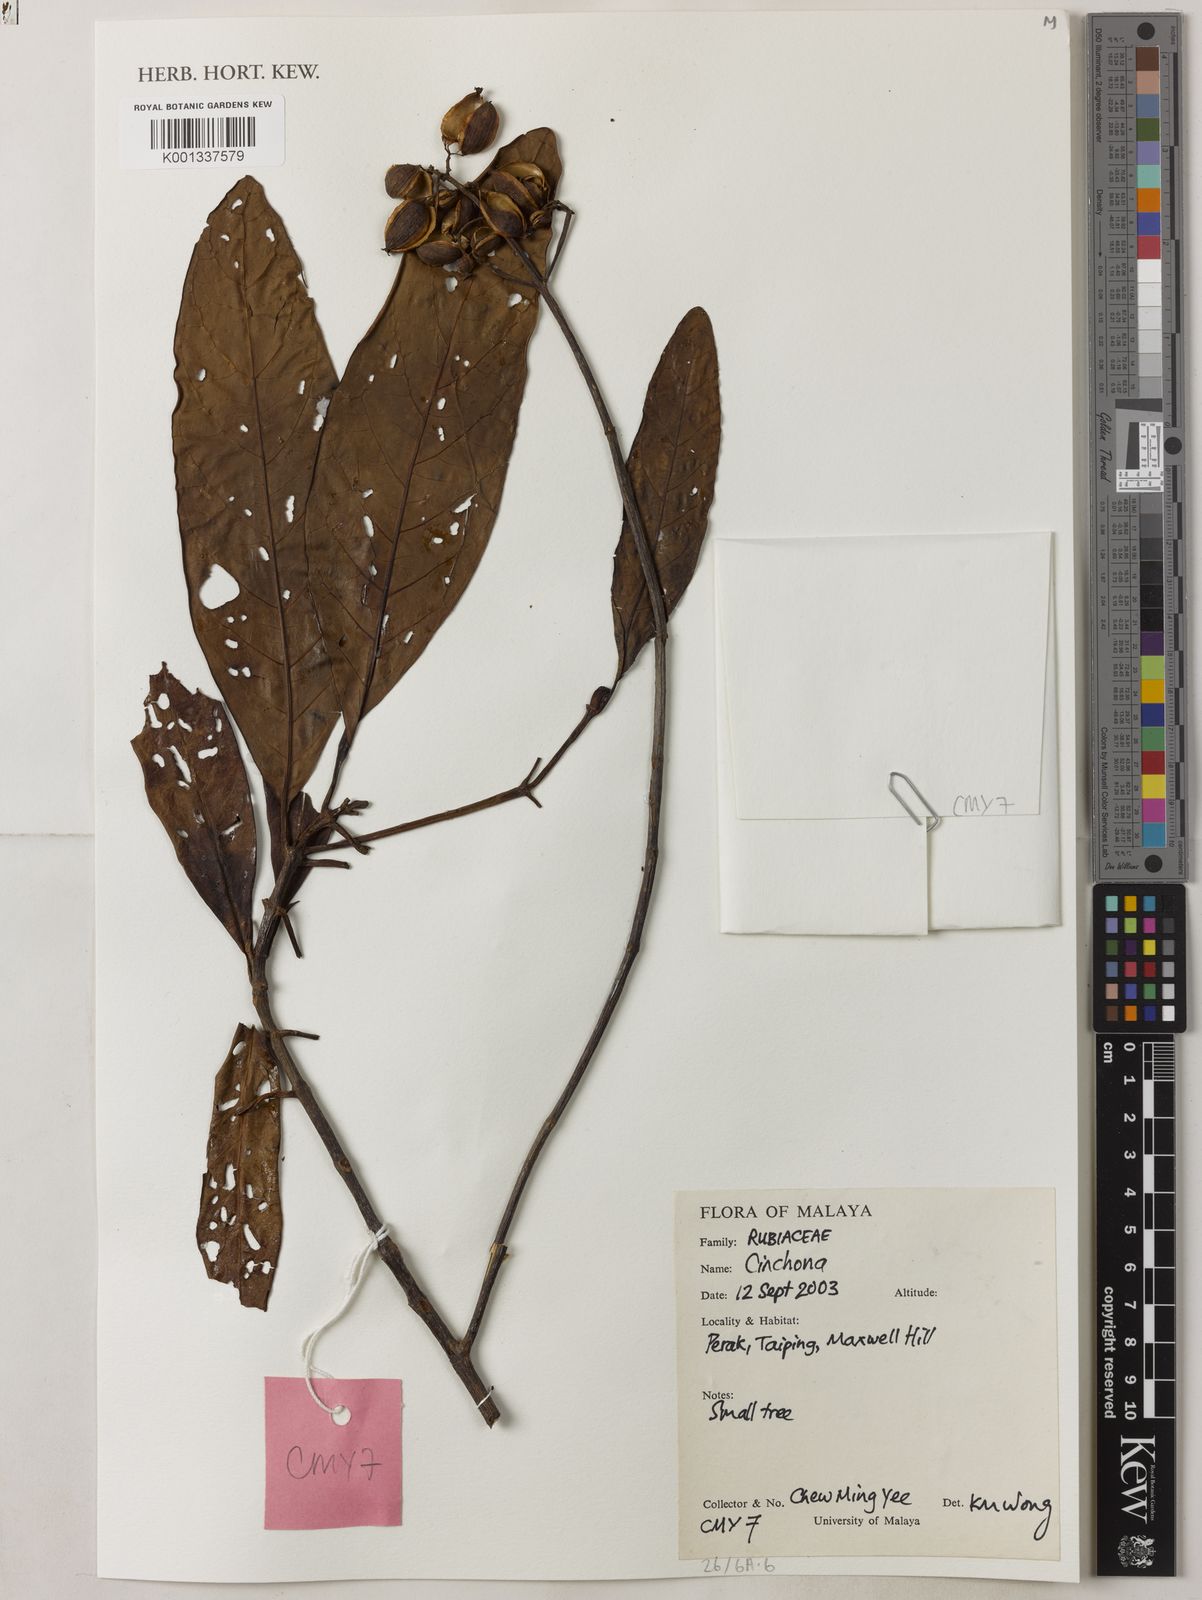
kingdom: Plantae
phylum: Tracheophyta
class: Magnoliopsida
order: Gentianales
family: Rubiaceae
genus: Cinchona
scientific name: Cinchona
